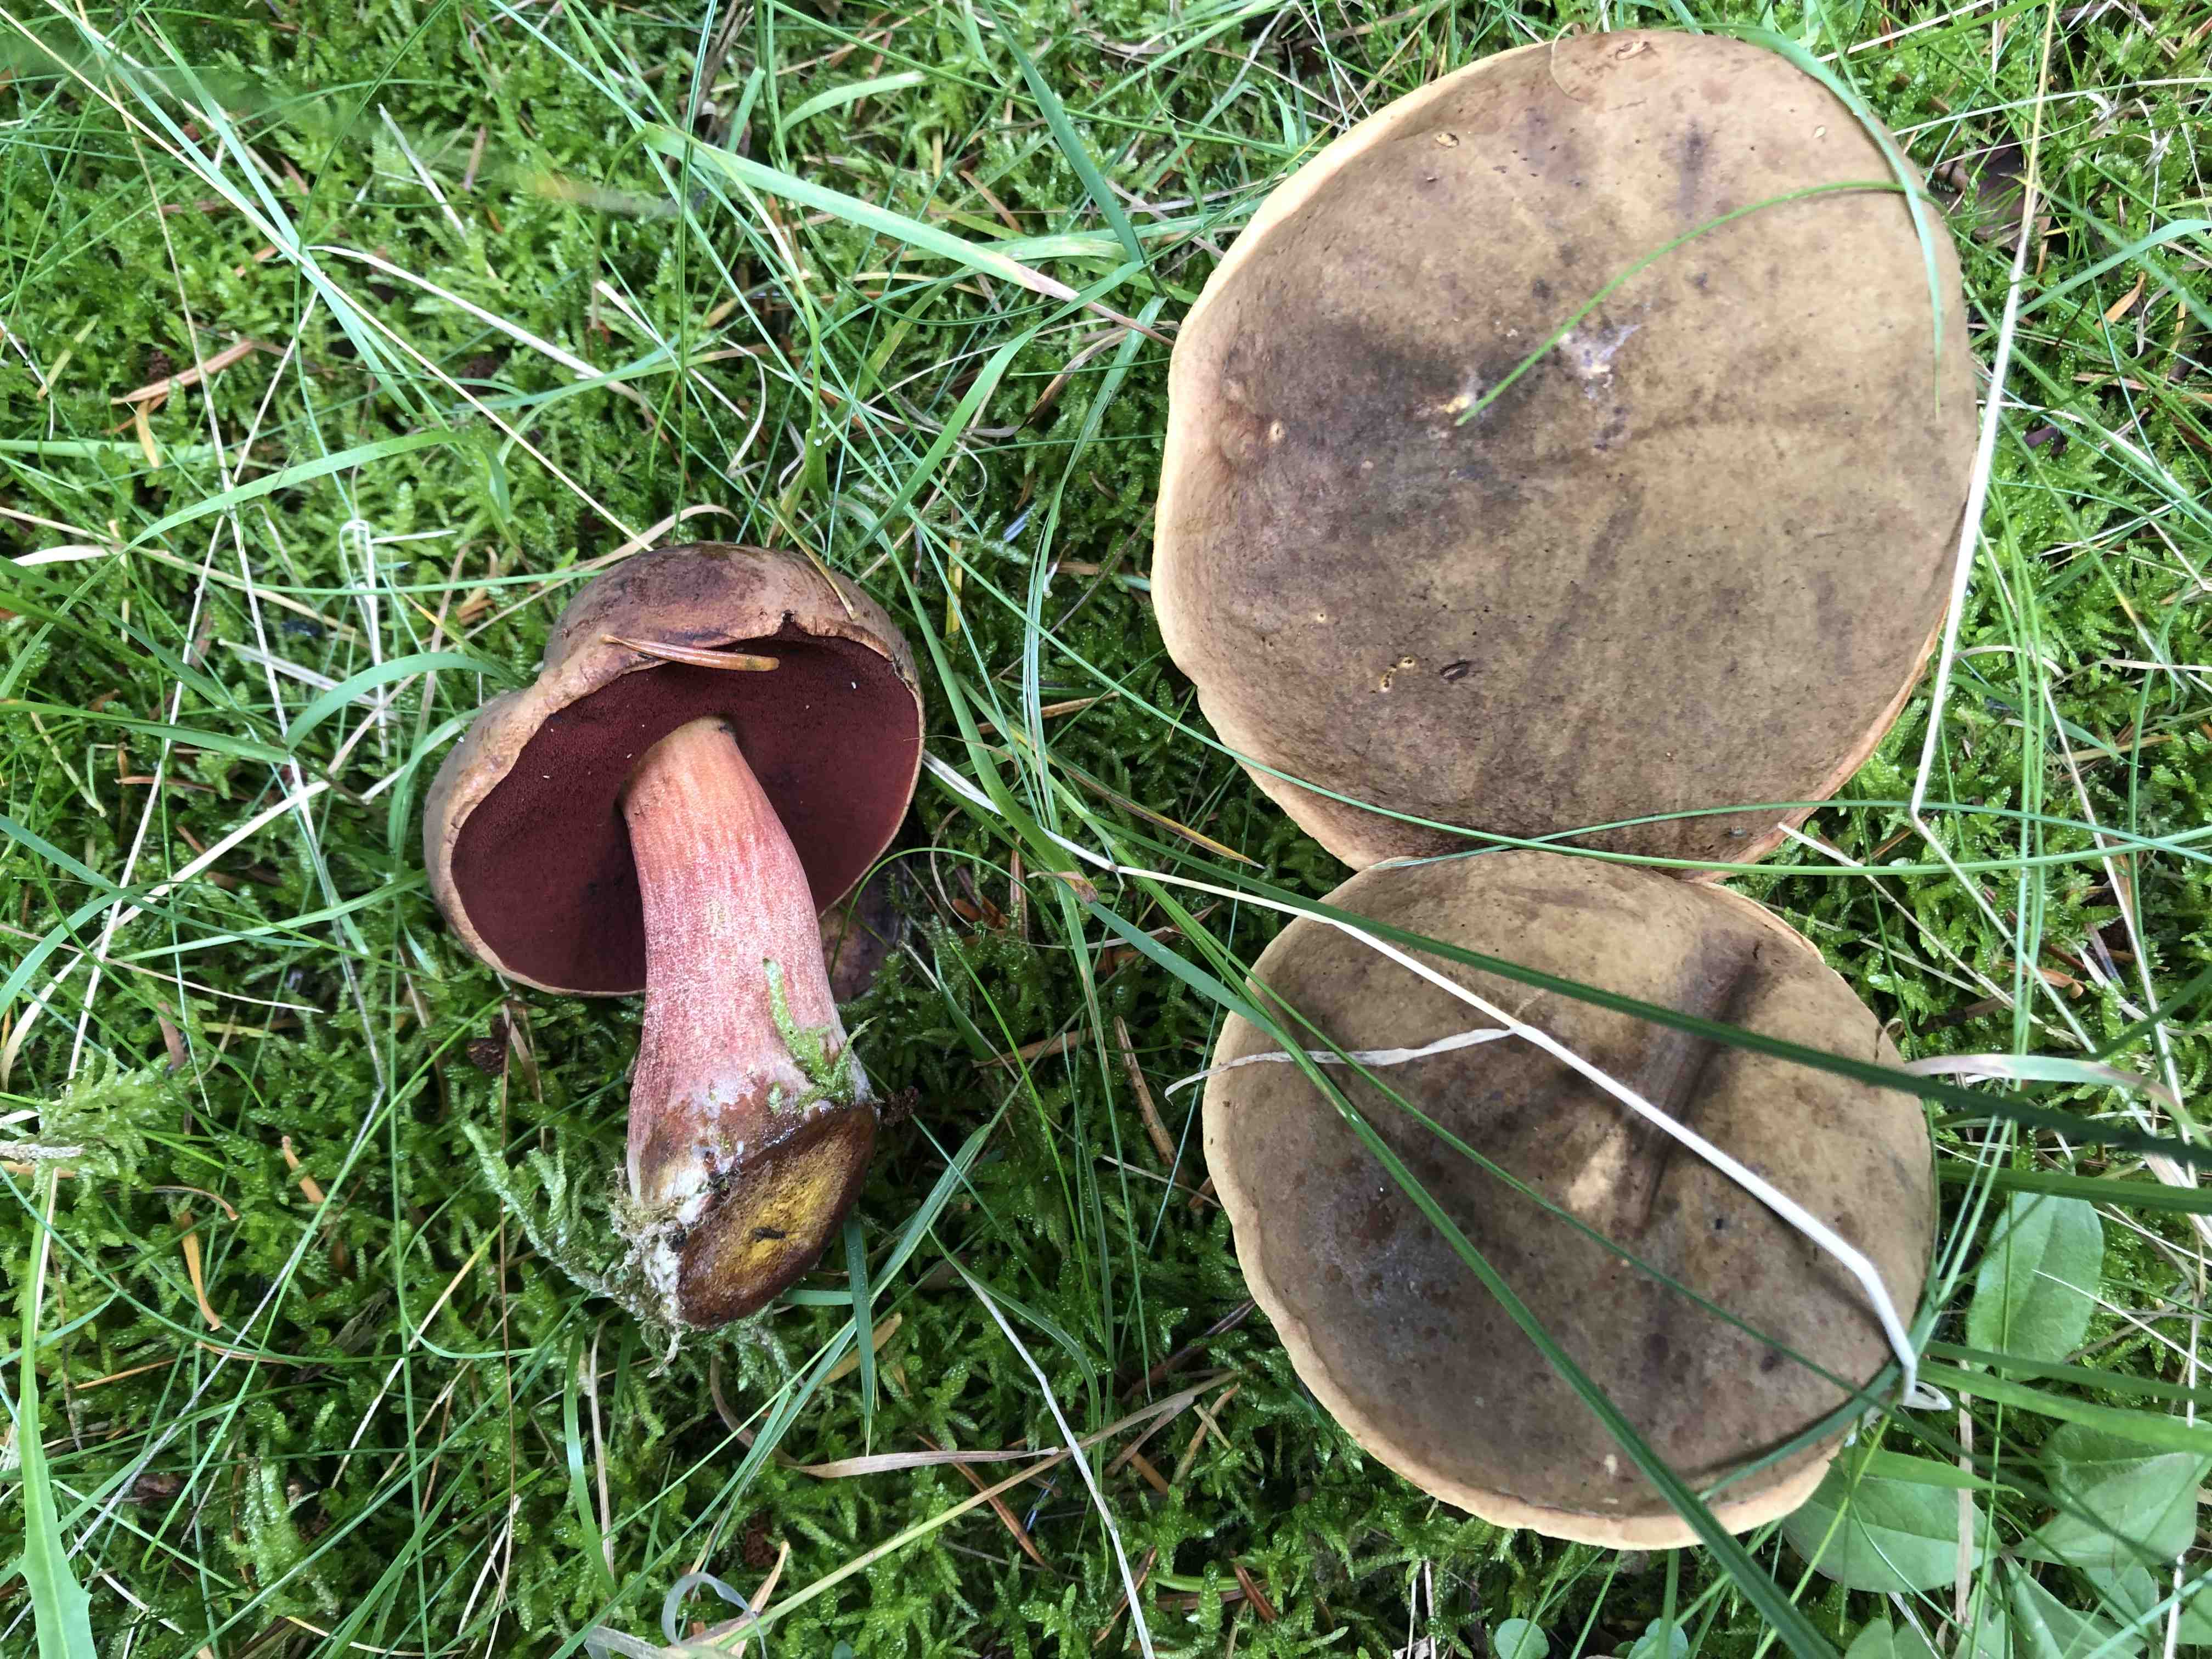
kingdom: Fungi
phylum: Basidiomycota
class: Agaricomycetes
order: Boletales
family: Boletaceae
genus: Neoboletus
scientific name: Neoboletus erythropus
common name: punktstokket indigorørhat
